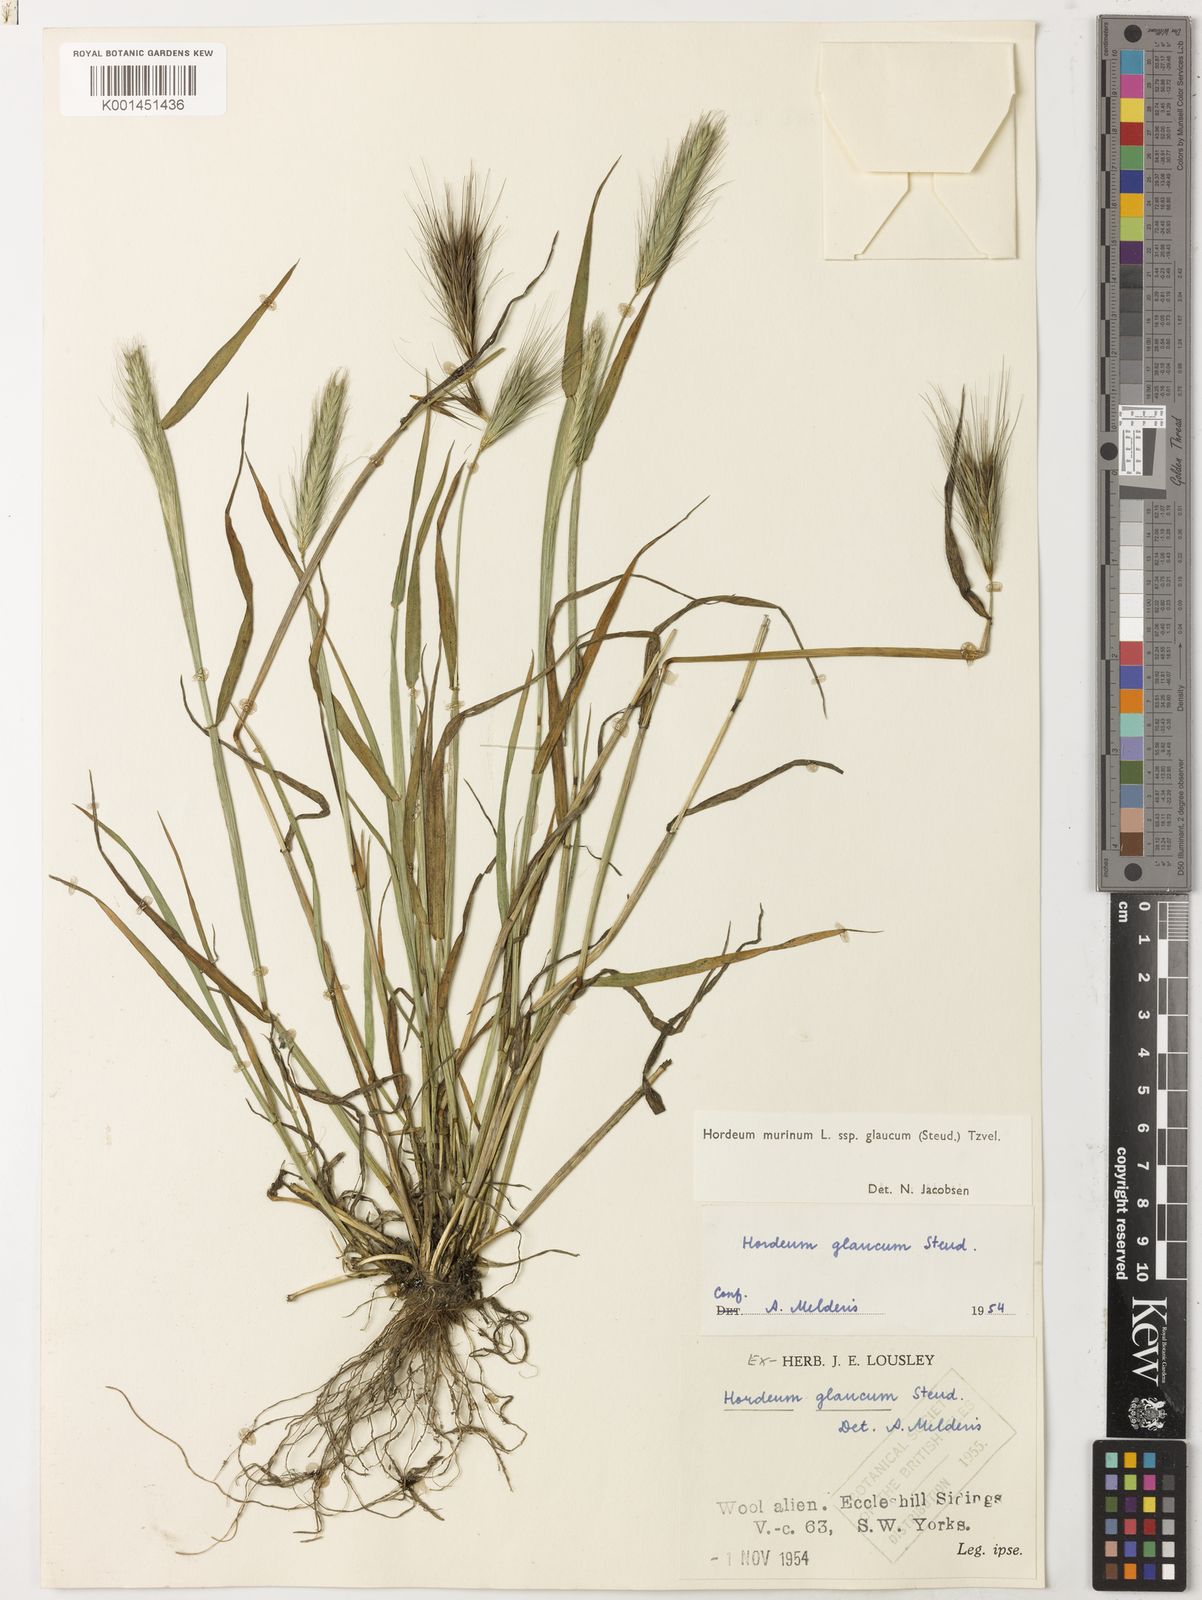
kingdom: Plantae
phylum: Tracheophyta
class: Liliopsida
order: Poales
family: Poaceae
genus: Hordeum
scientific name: Hordeum murinum
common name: Wall barley
